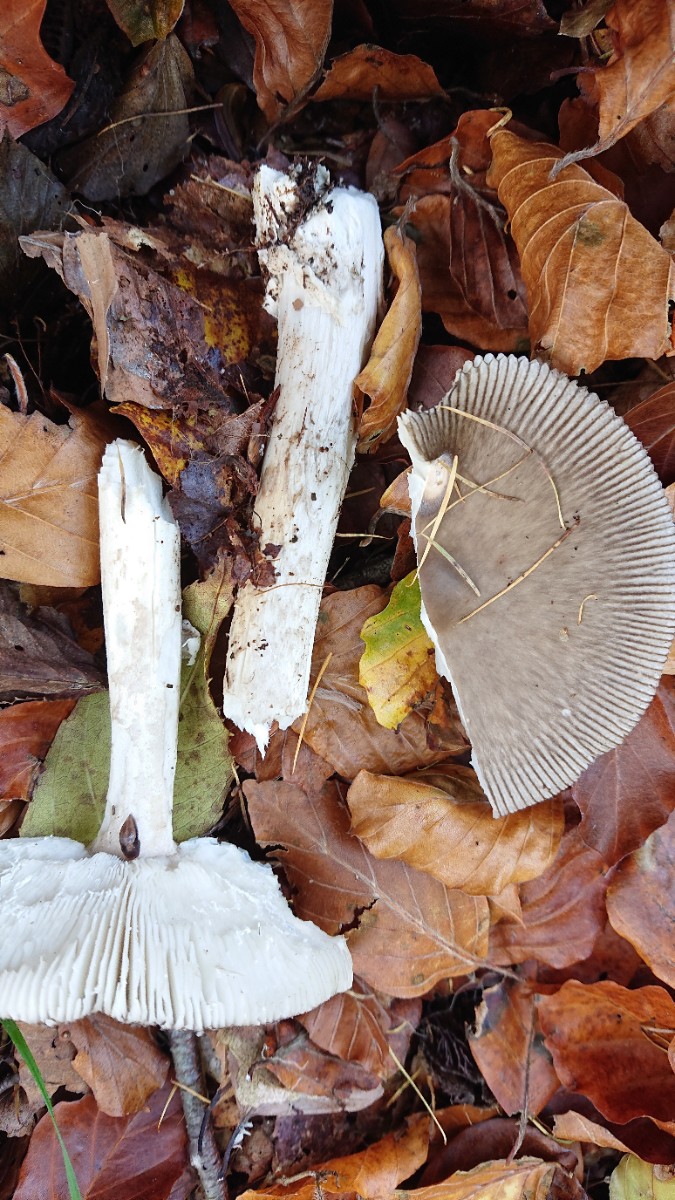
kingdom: Fungi
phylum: Basidiomycota
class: Agaricomycetes
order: Agaricales
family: Amanitaceae
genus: Amanita
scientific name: Amanita vaginata
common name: grå kam-fluesvamp
